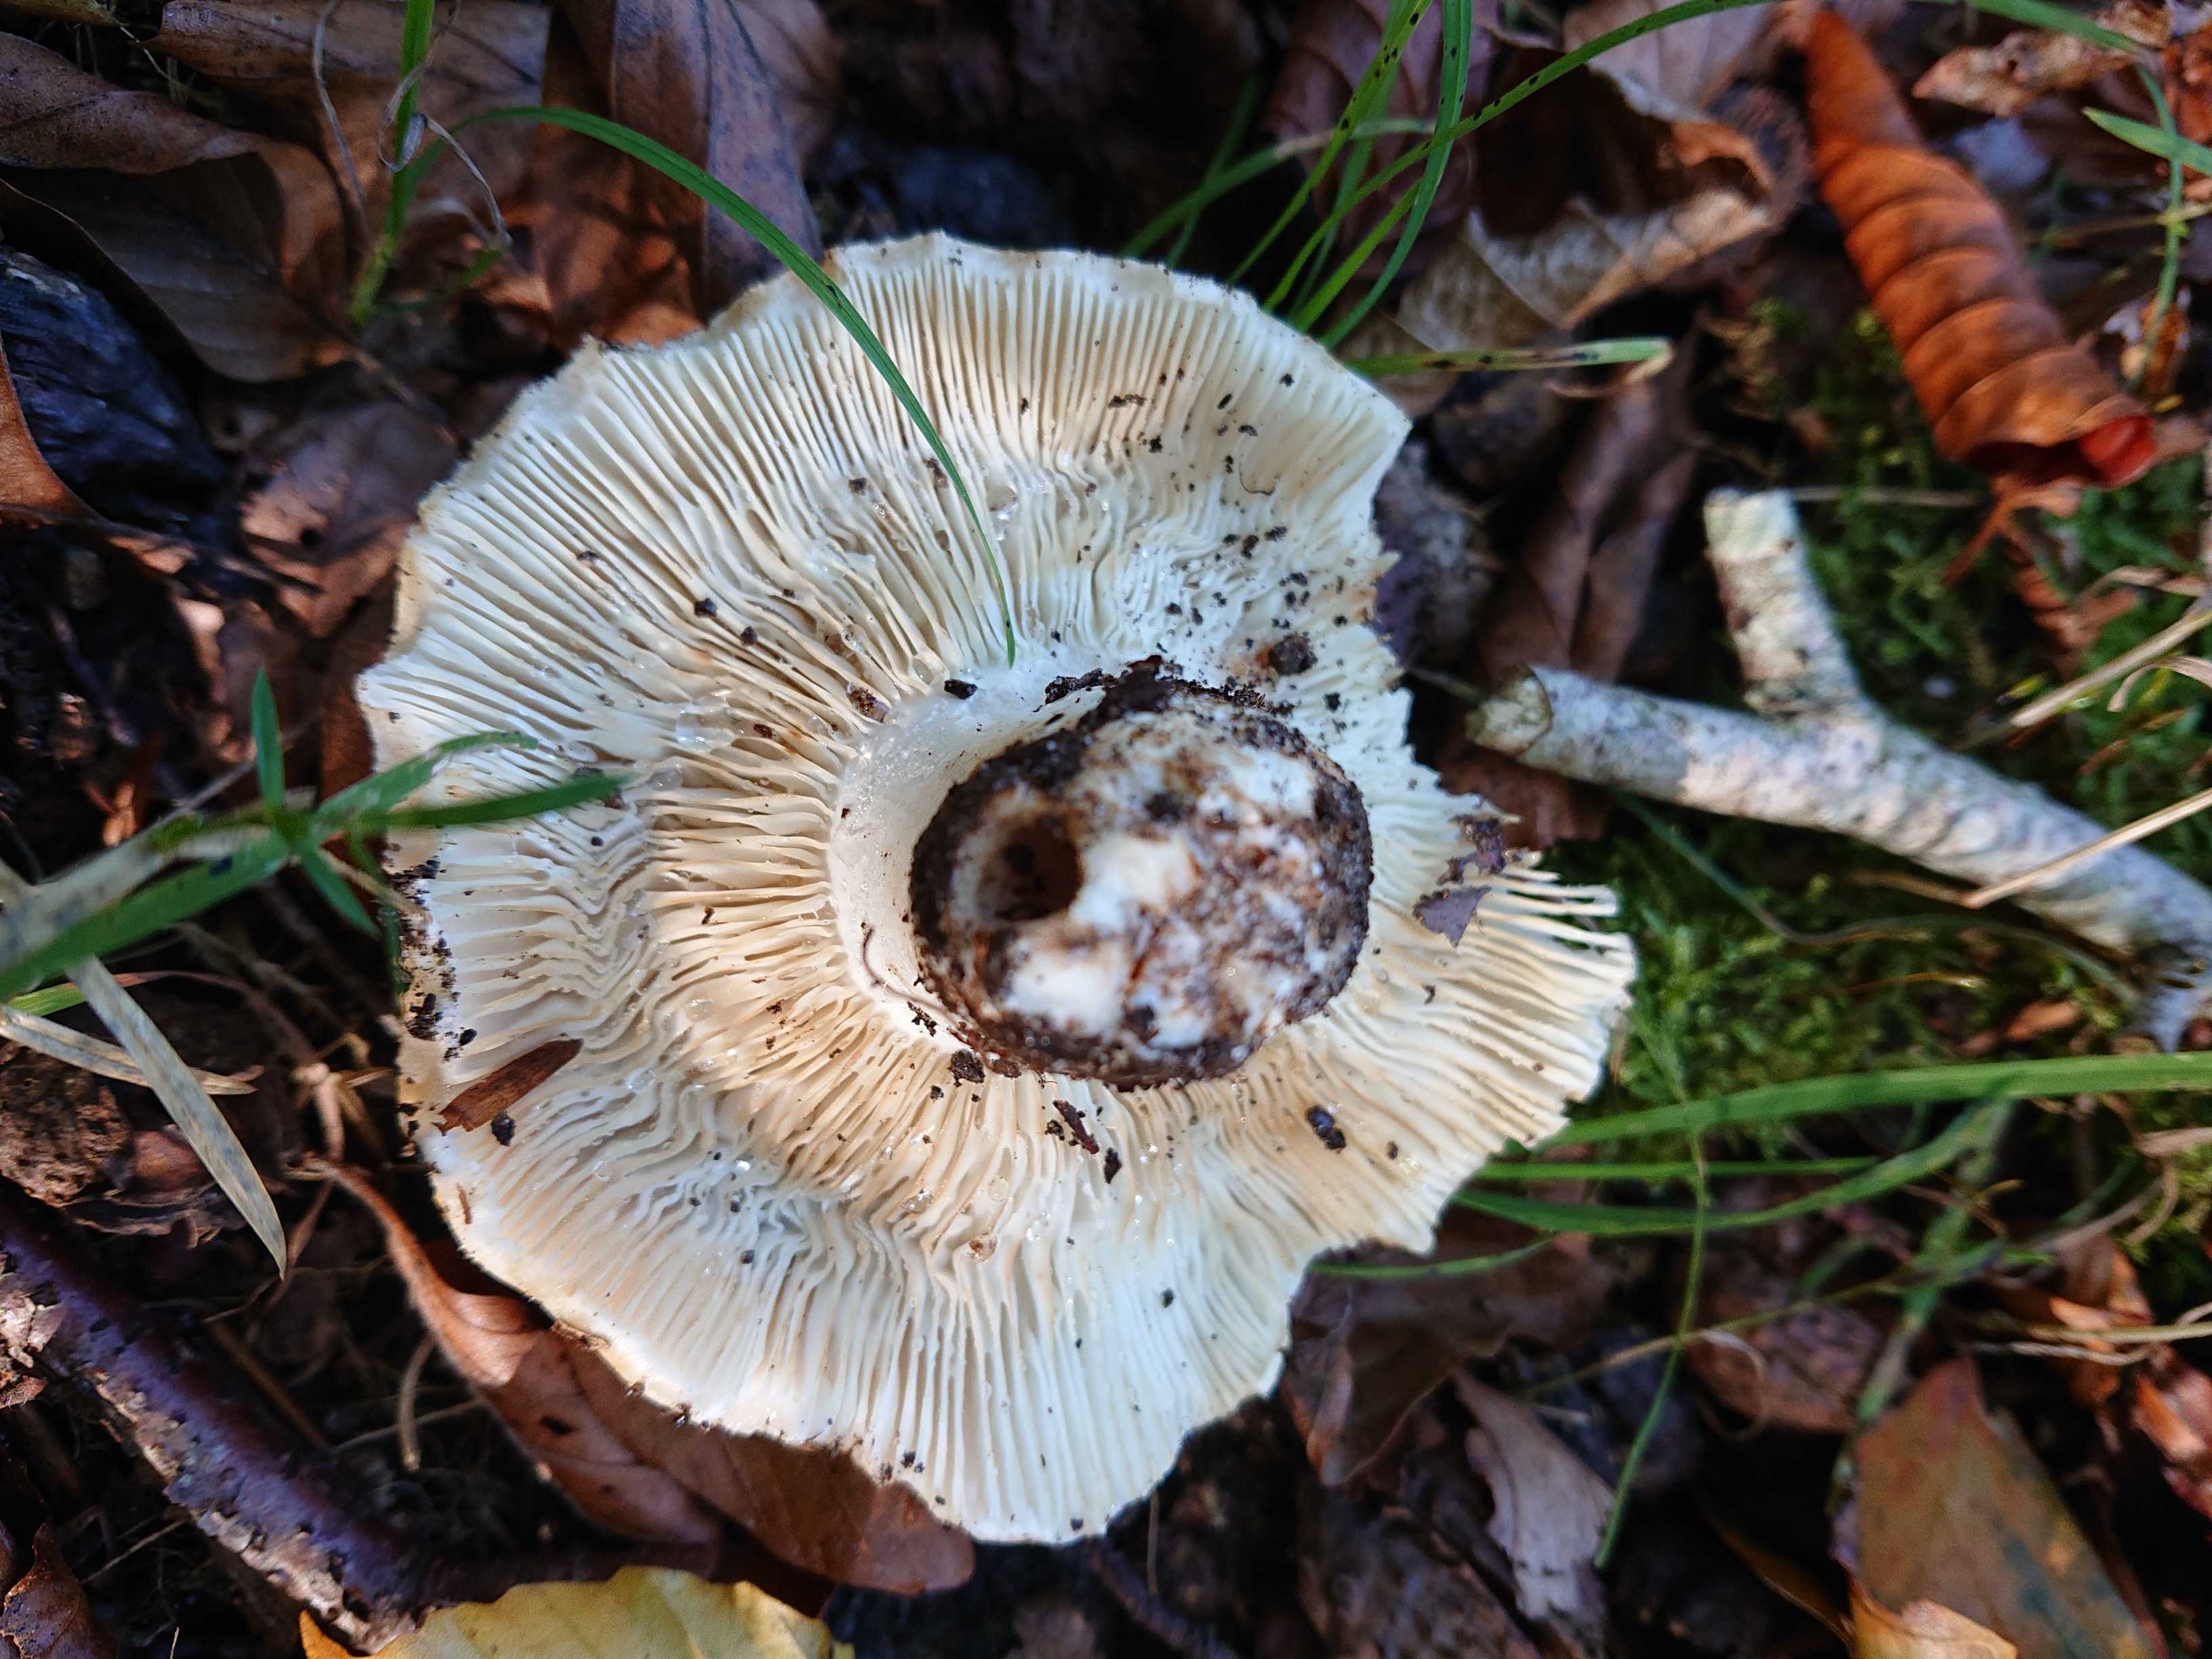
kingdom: Fungi
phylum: Basidiomycota
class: Agaricomycetes
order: Russulales
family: Russulaceae
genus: Russula
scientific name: Russula delica
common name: almindelig tragt-skørhat
